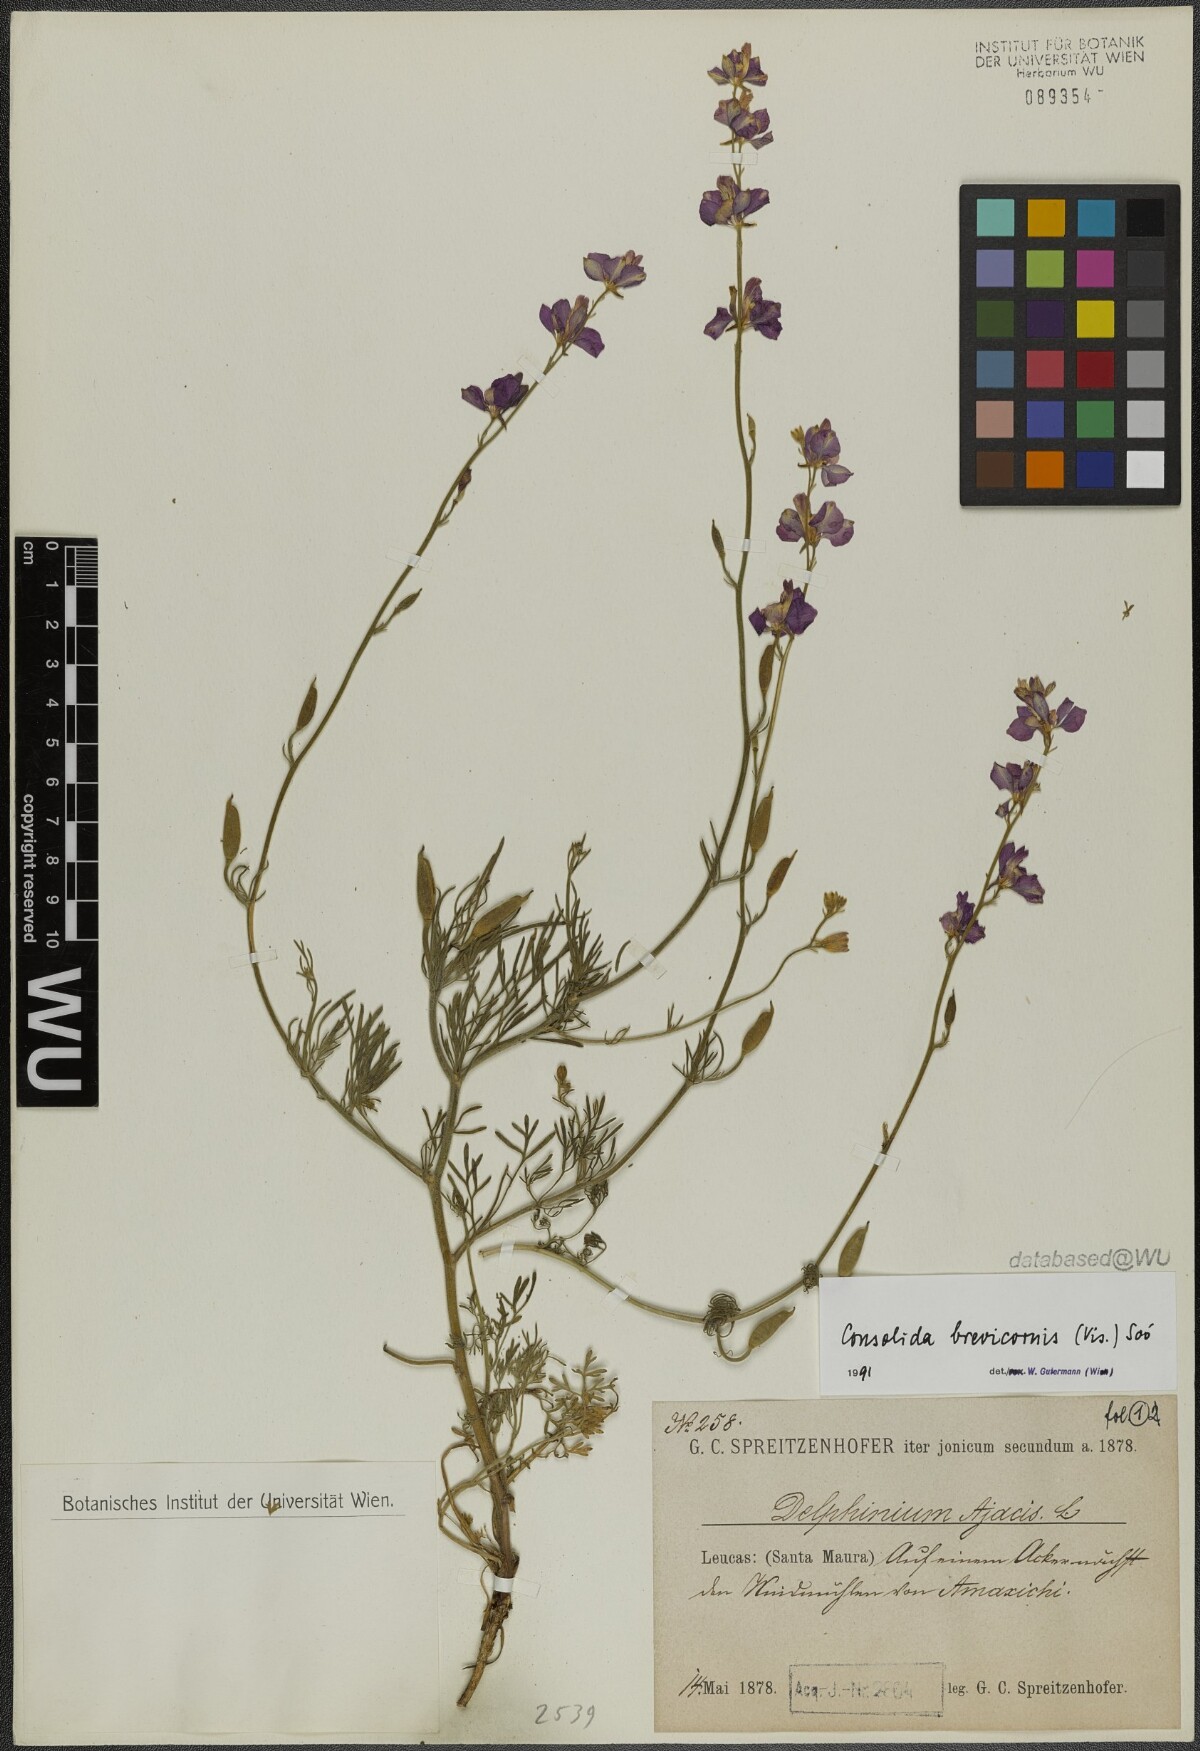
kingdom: Plantae
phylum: Tracheophyta
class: Magnoliopsida
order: Ranunculales
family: Ranunculaceae
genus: Delphinium
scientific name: Delphinium brevicorne
